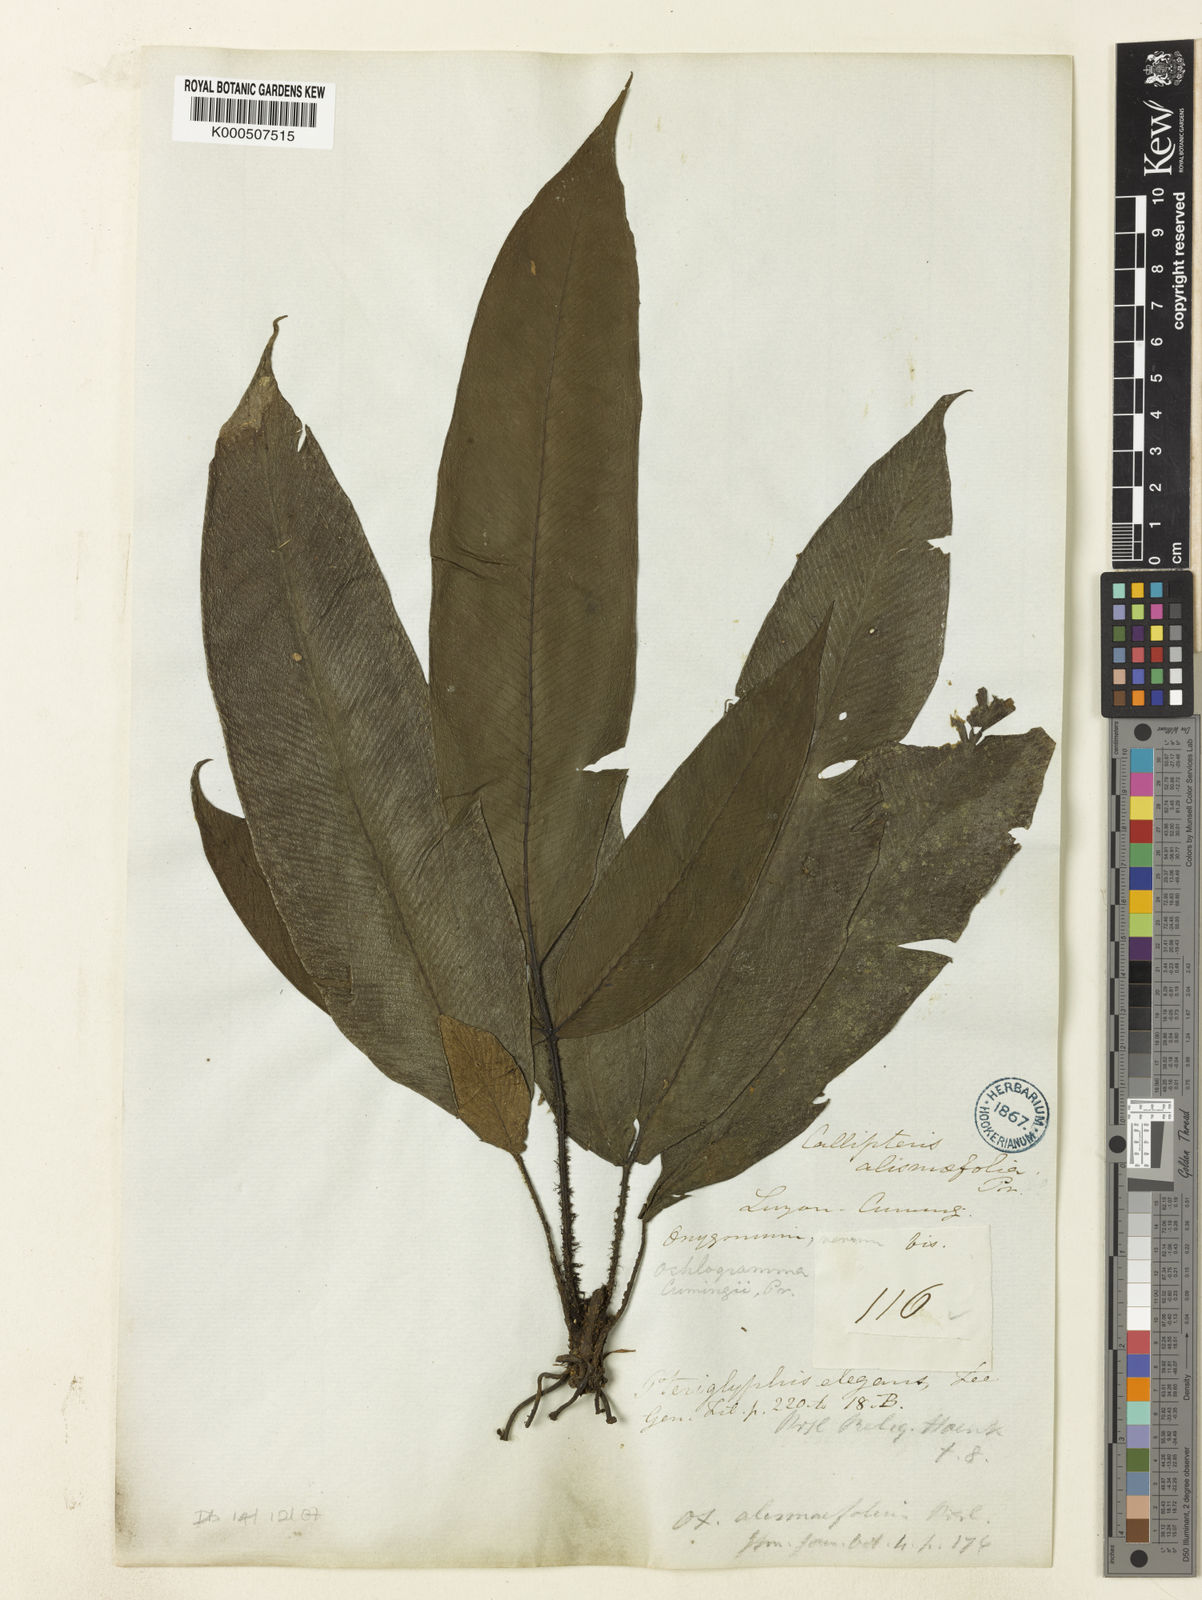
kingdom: Plantae
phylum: Tracheophyta
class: Polypodiopsida
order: Polypodiales
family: Athyriaceae
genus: Diplazium
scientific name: Diplazium cumingii
